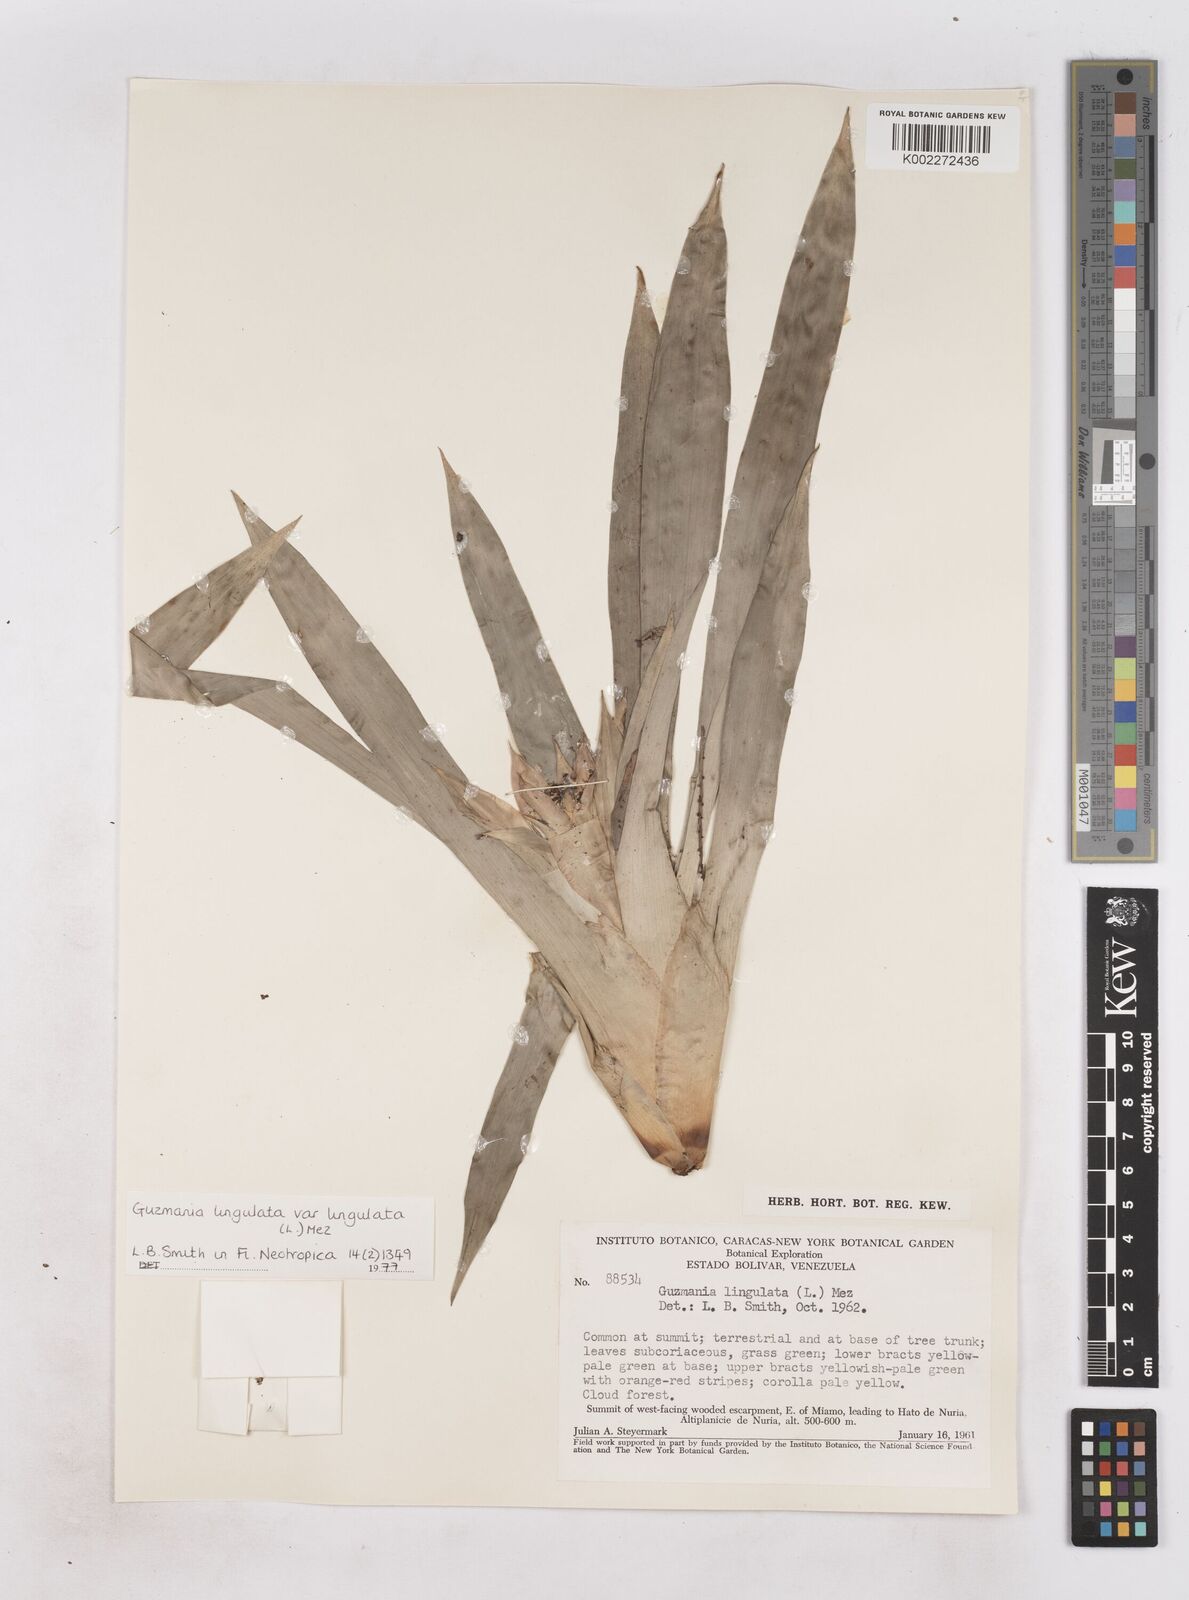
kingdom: Plantae
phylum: Tracheophyta
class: Liliopsida
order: Poales
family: Bromeliaceae
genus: Guzmania
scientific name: Guzmania lingulata
